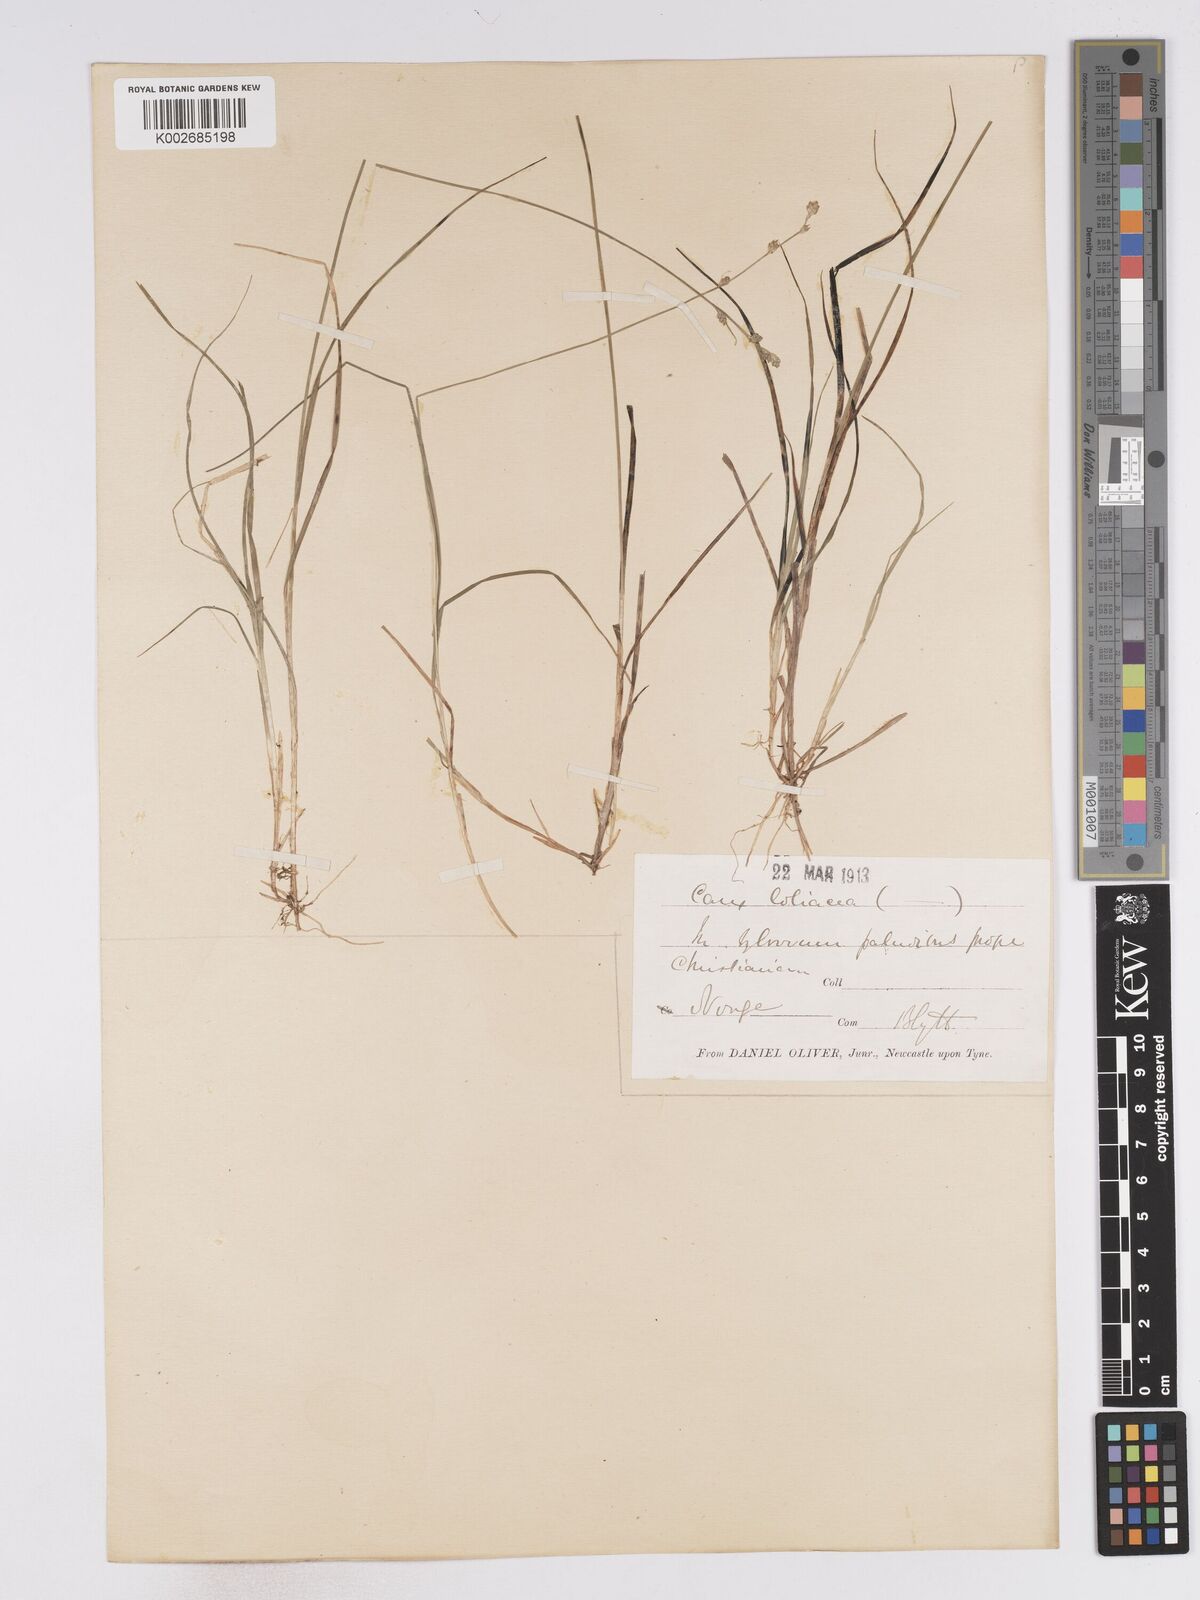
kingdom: Plantae
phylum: Tracheophyta
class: Liliopsida
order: Poales
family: Cyperaceae
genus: Carex
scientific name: Carex loliacea
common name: Ryegrass sedge
